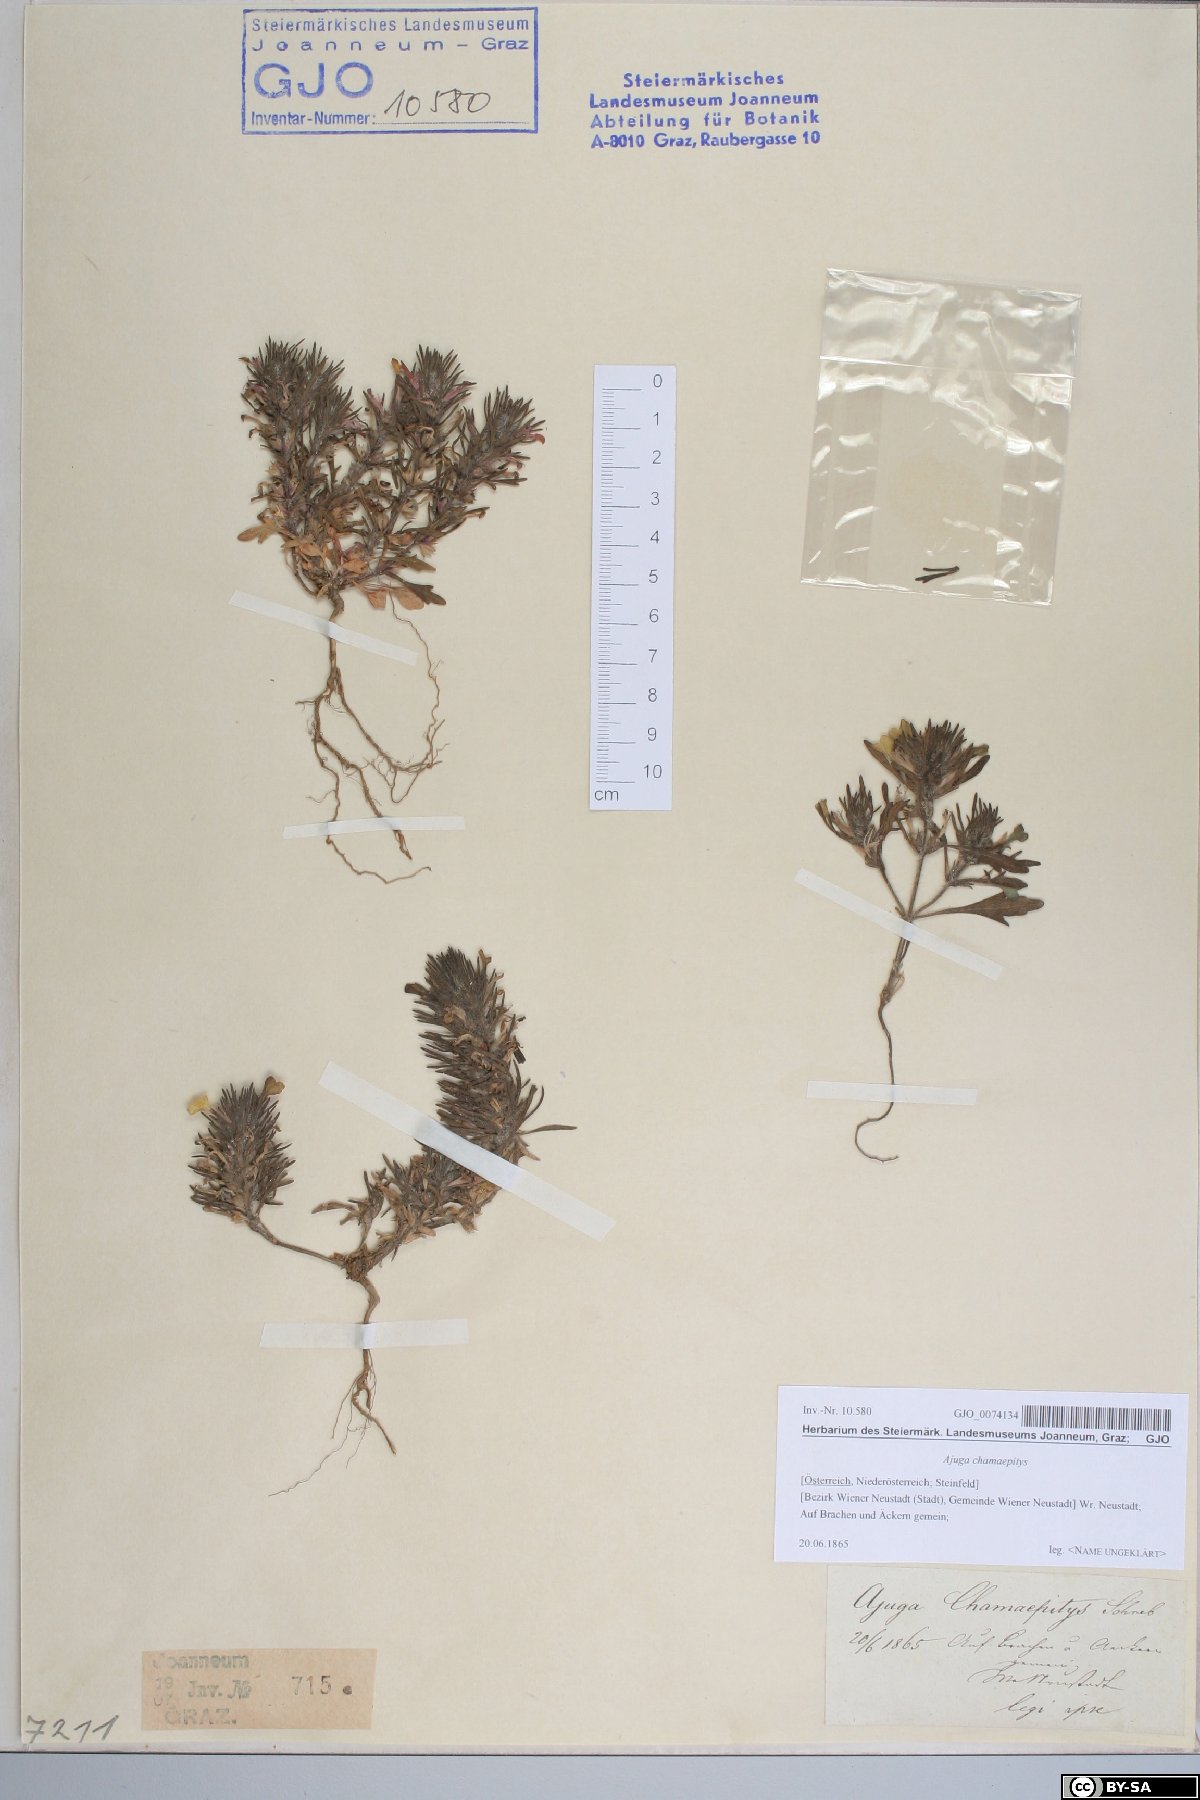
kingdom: Plantae
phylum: Tracheophyta
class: Magnoliopsida
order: Lamiales
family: Lamiaceae
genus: Ajuga
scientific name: Ajuga chamaepitys
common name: Ground-pine
